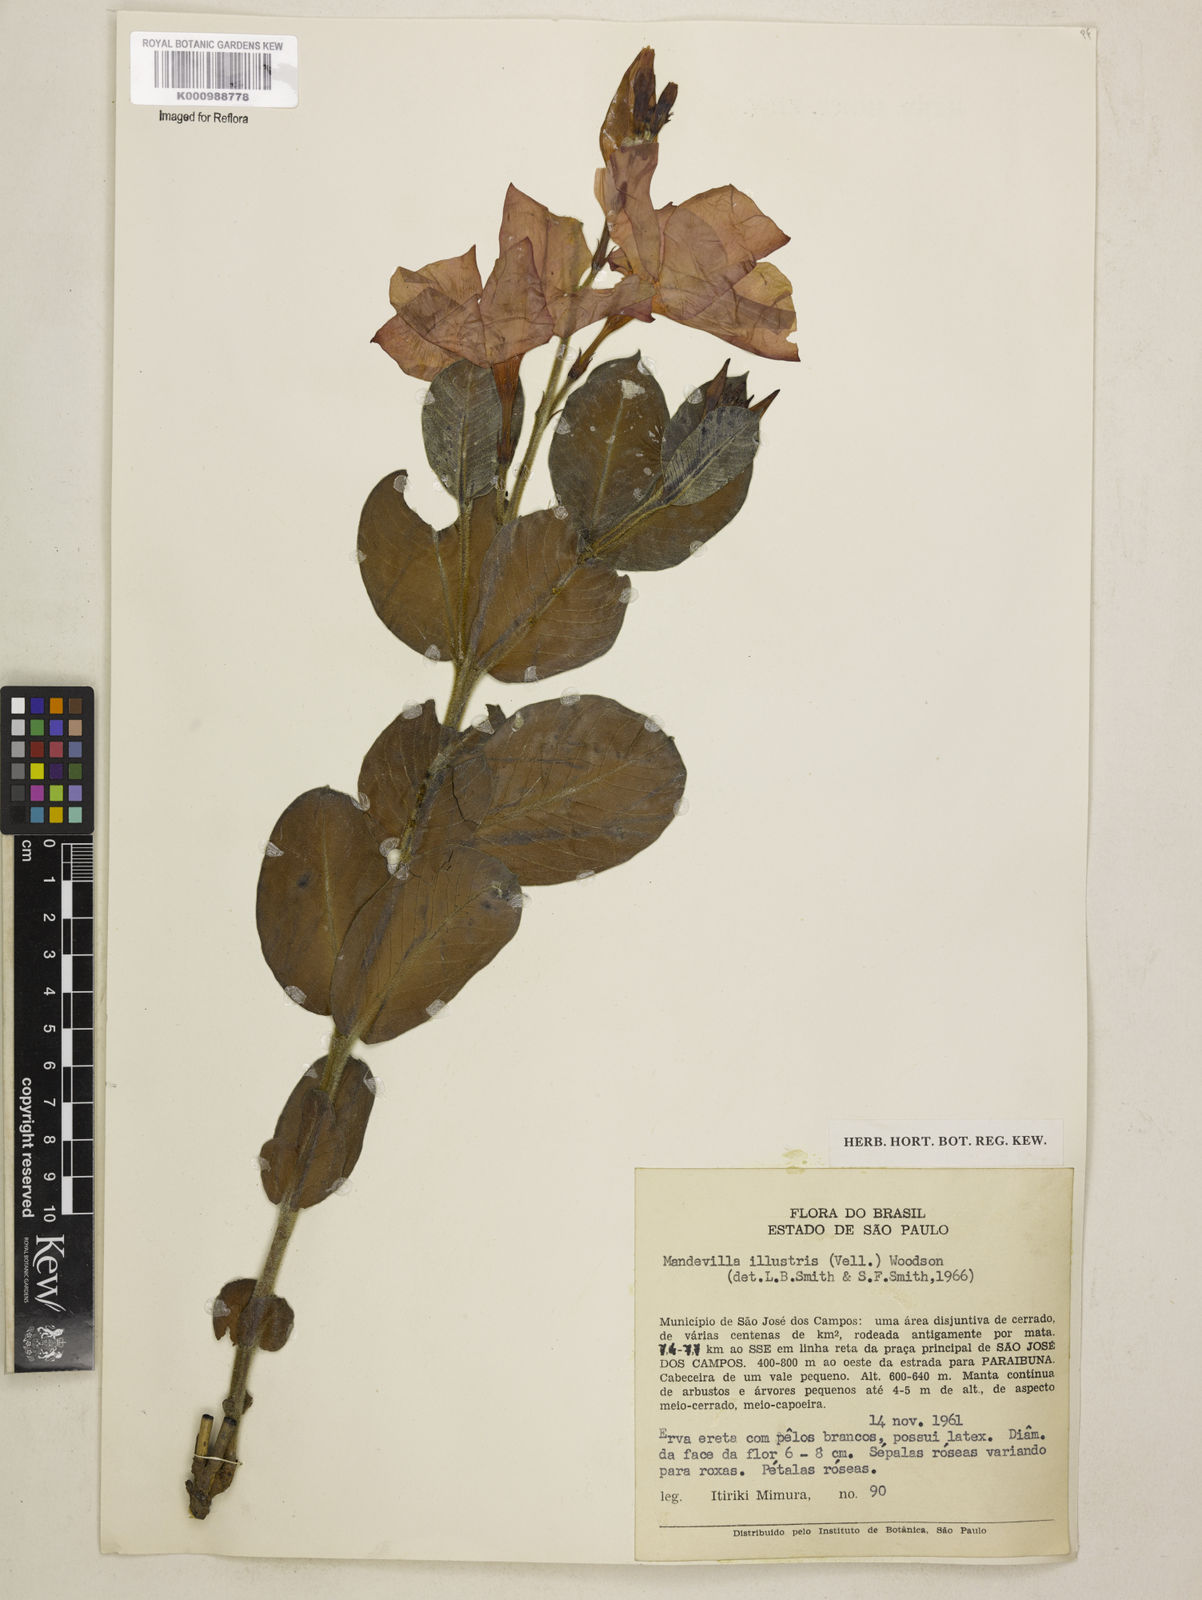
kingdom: Plantae
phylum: Tracheophyta
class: Magnoliopsida
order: Gentianales
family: Apocynaceae
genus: Mandevilla
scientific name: Mandevilla illustris
